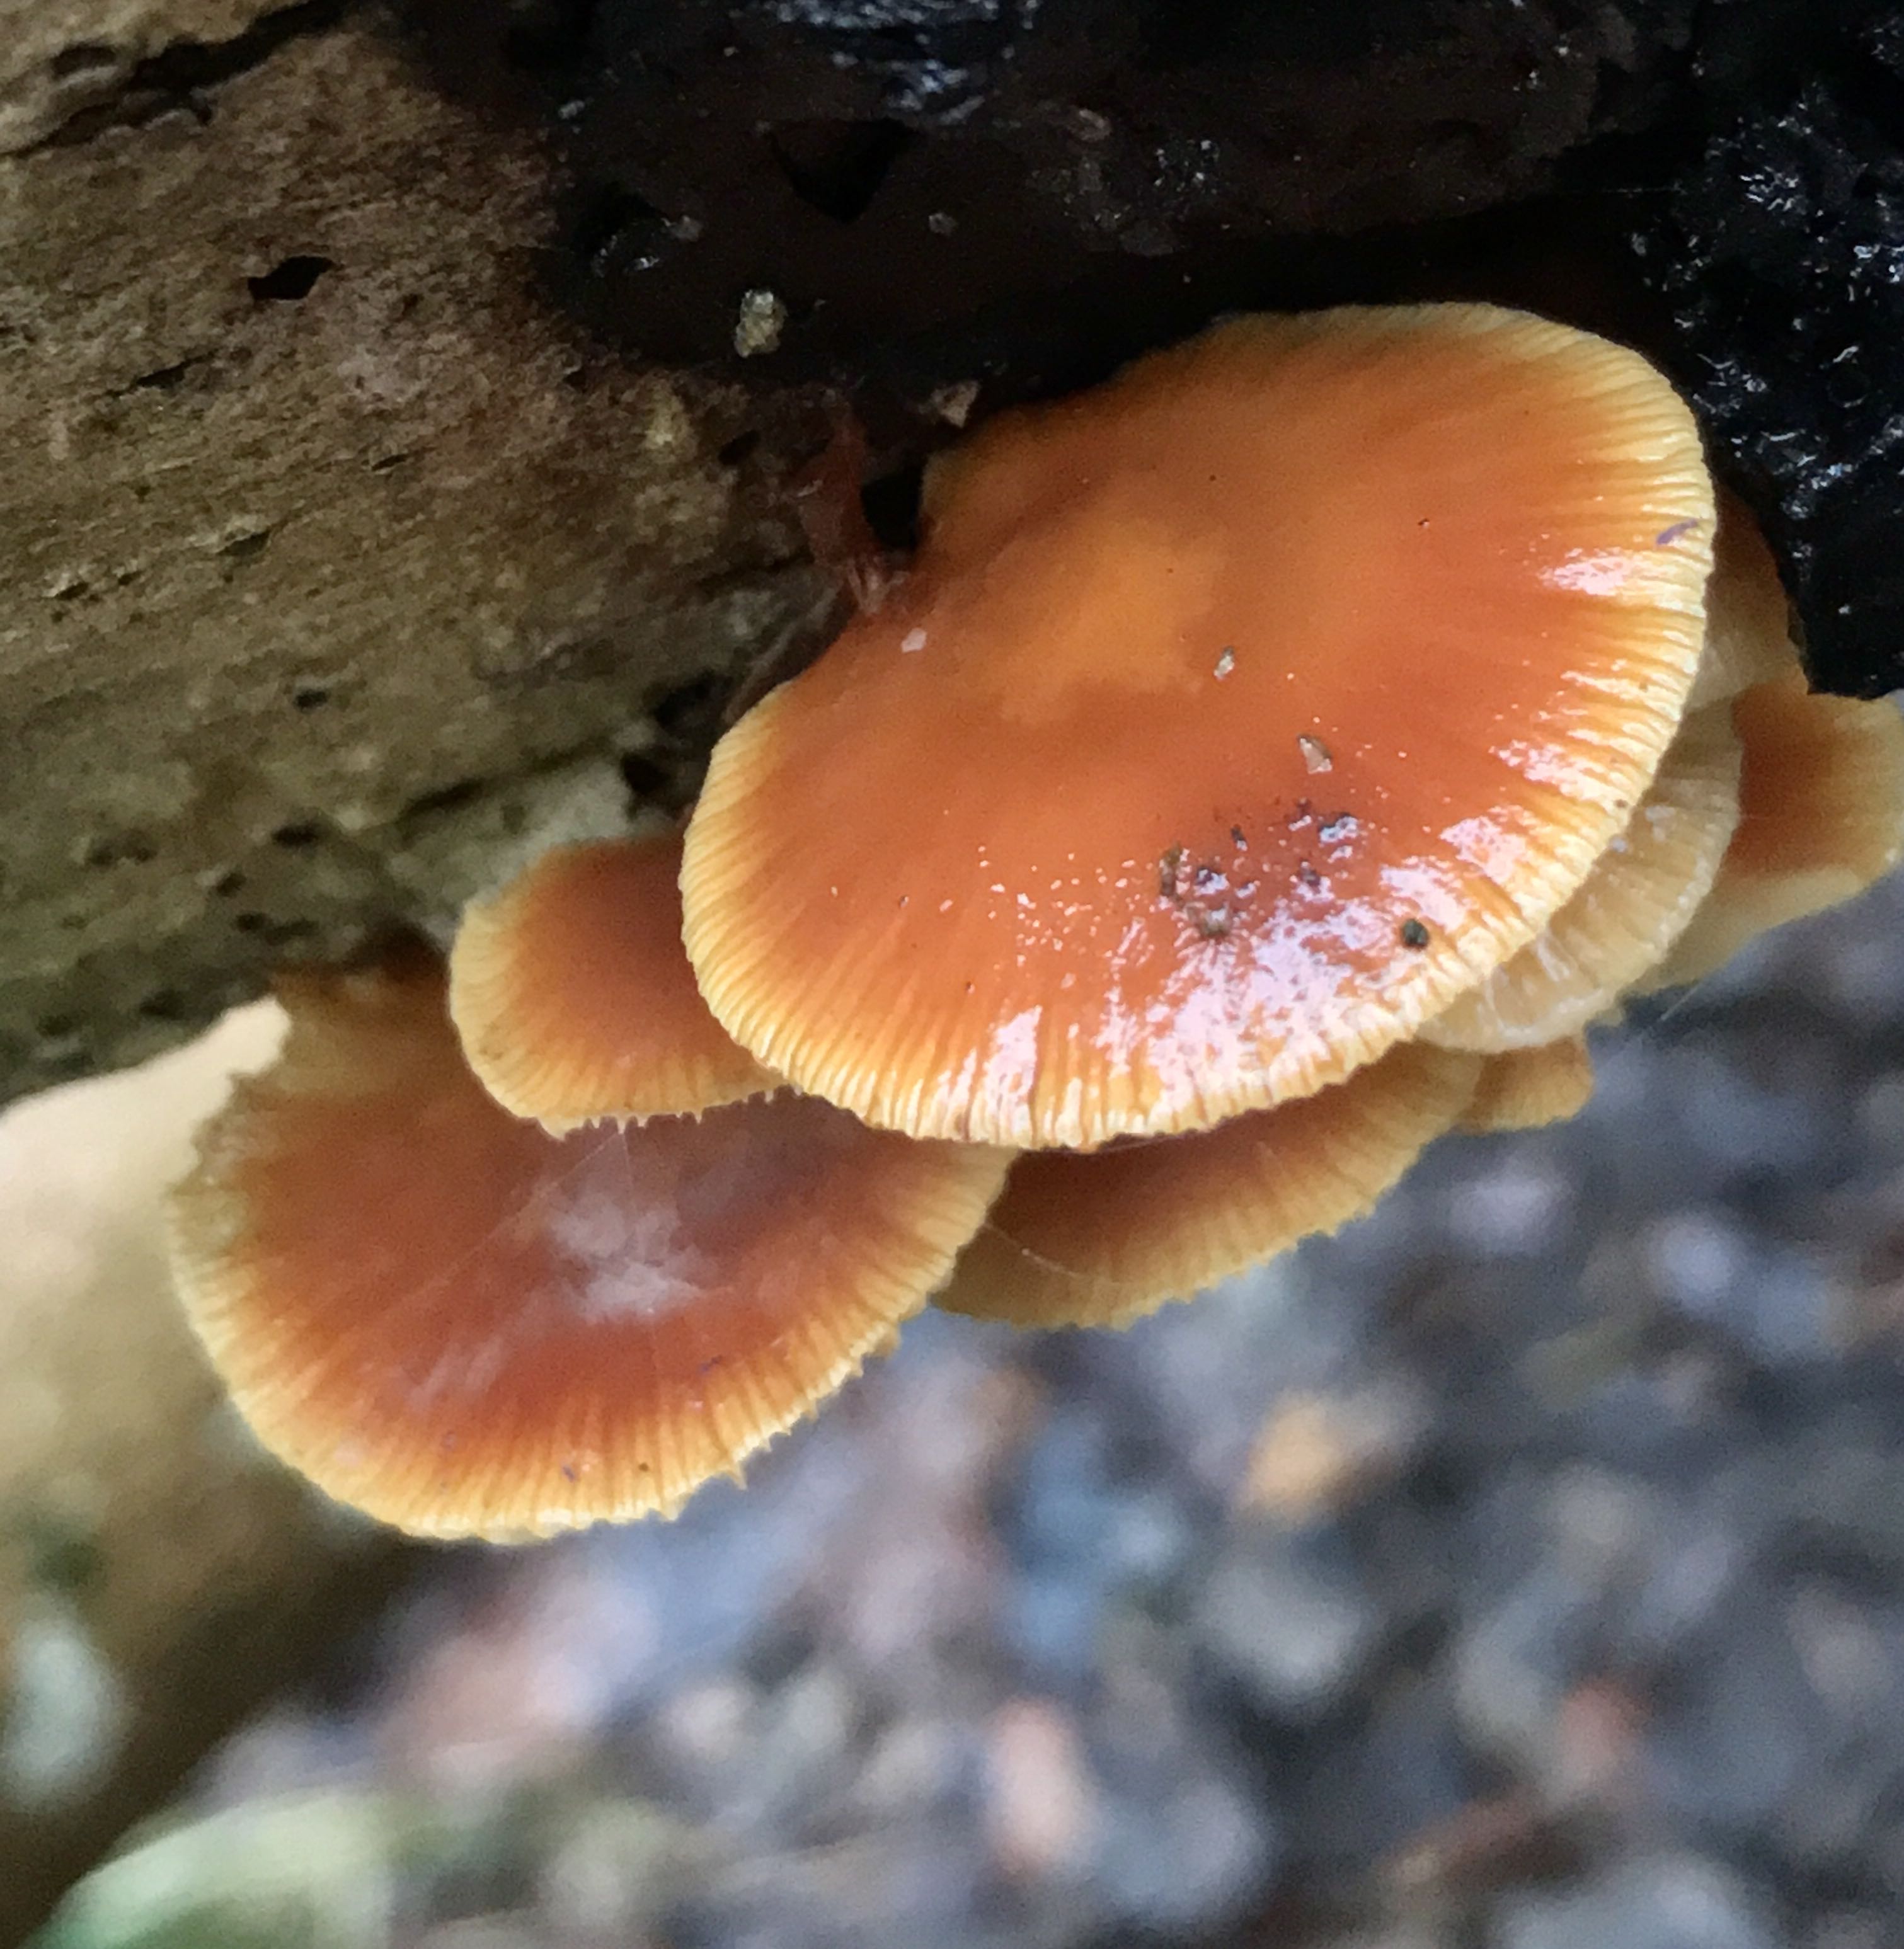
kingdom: Fungi
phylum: Basidiomycota
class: Agaricomycetes
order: Agaricales
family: Physalacriaceae
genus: Flammulina
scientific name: Flammulina velutipes
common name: gul fløjlsfod
